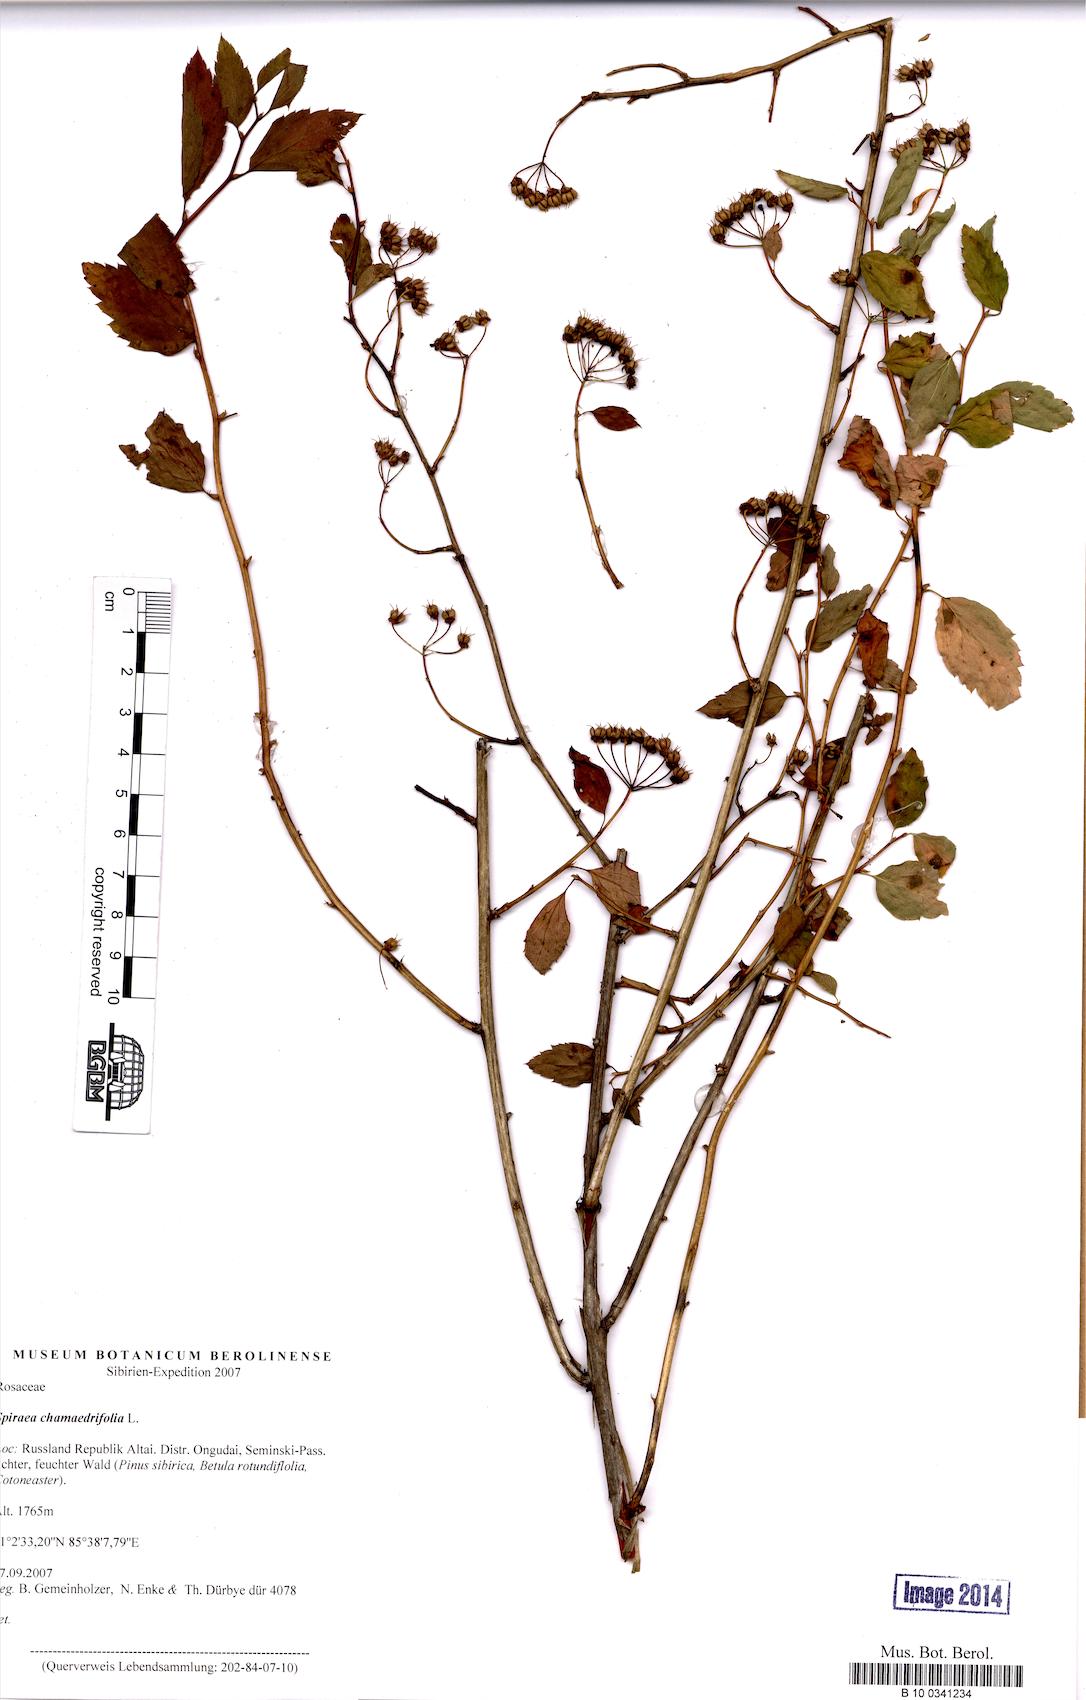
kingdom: Plantae
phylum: Tracheophyta
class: Magnoliopsida
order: Rosales
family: Rosaceae
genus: Spiraea
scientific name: Spiraea chamaedryfolia
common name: Elm-leaved spiraea
